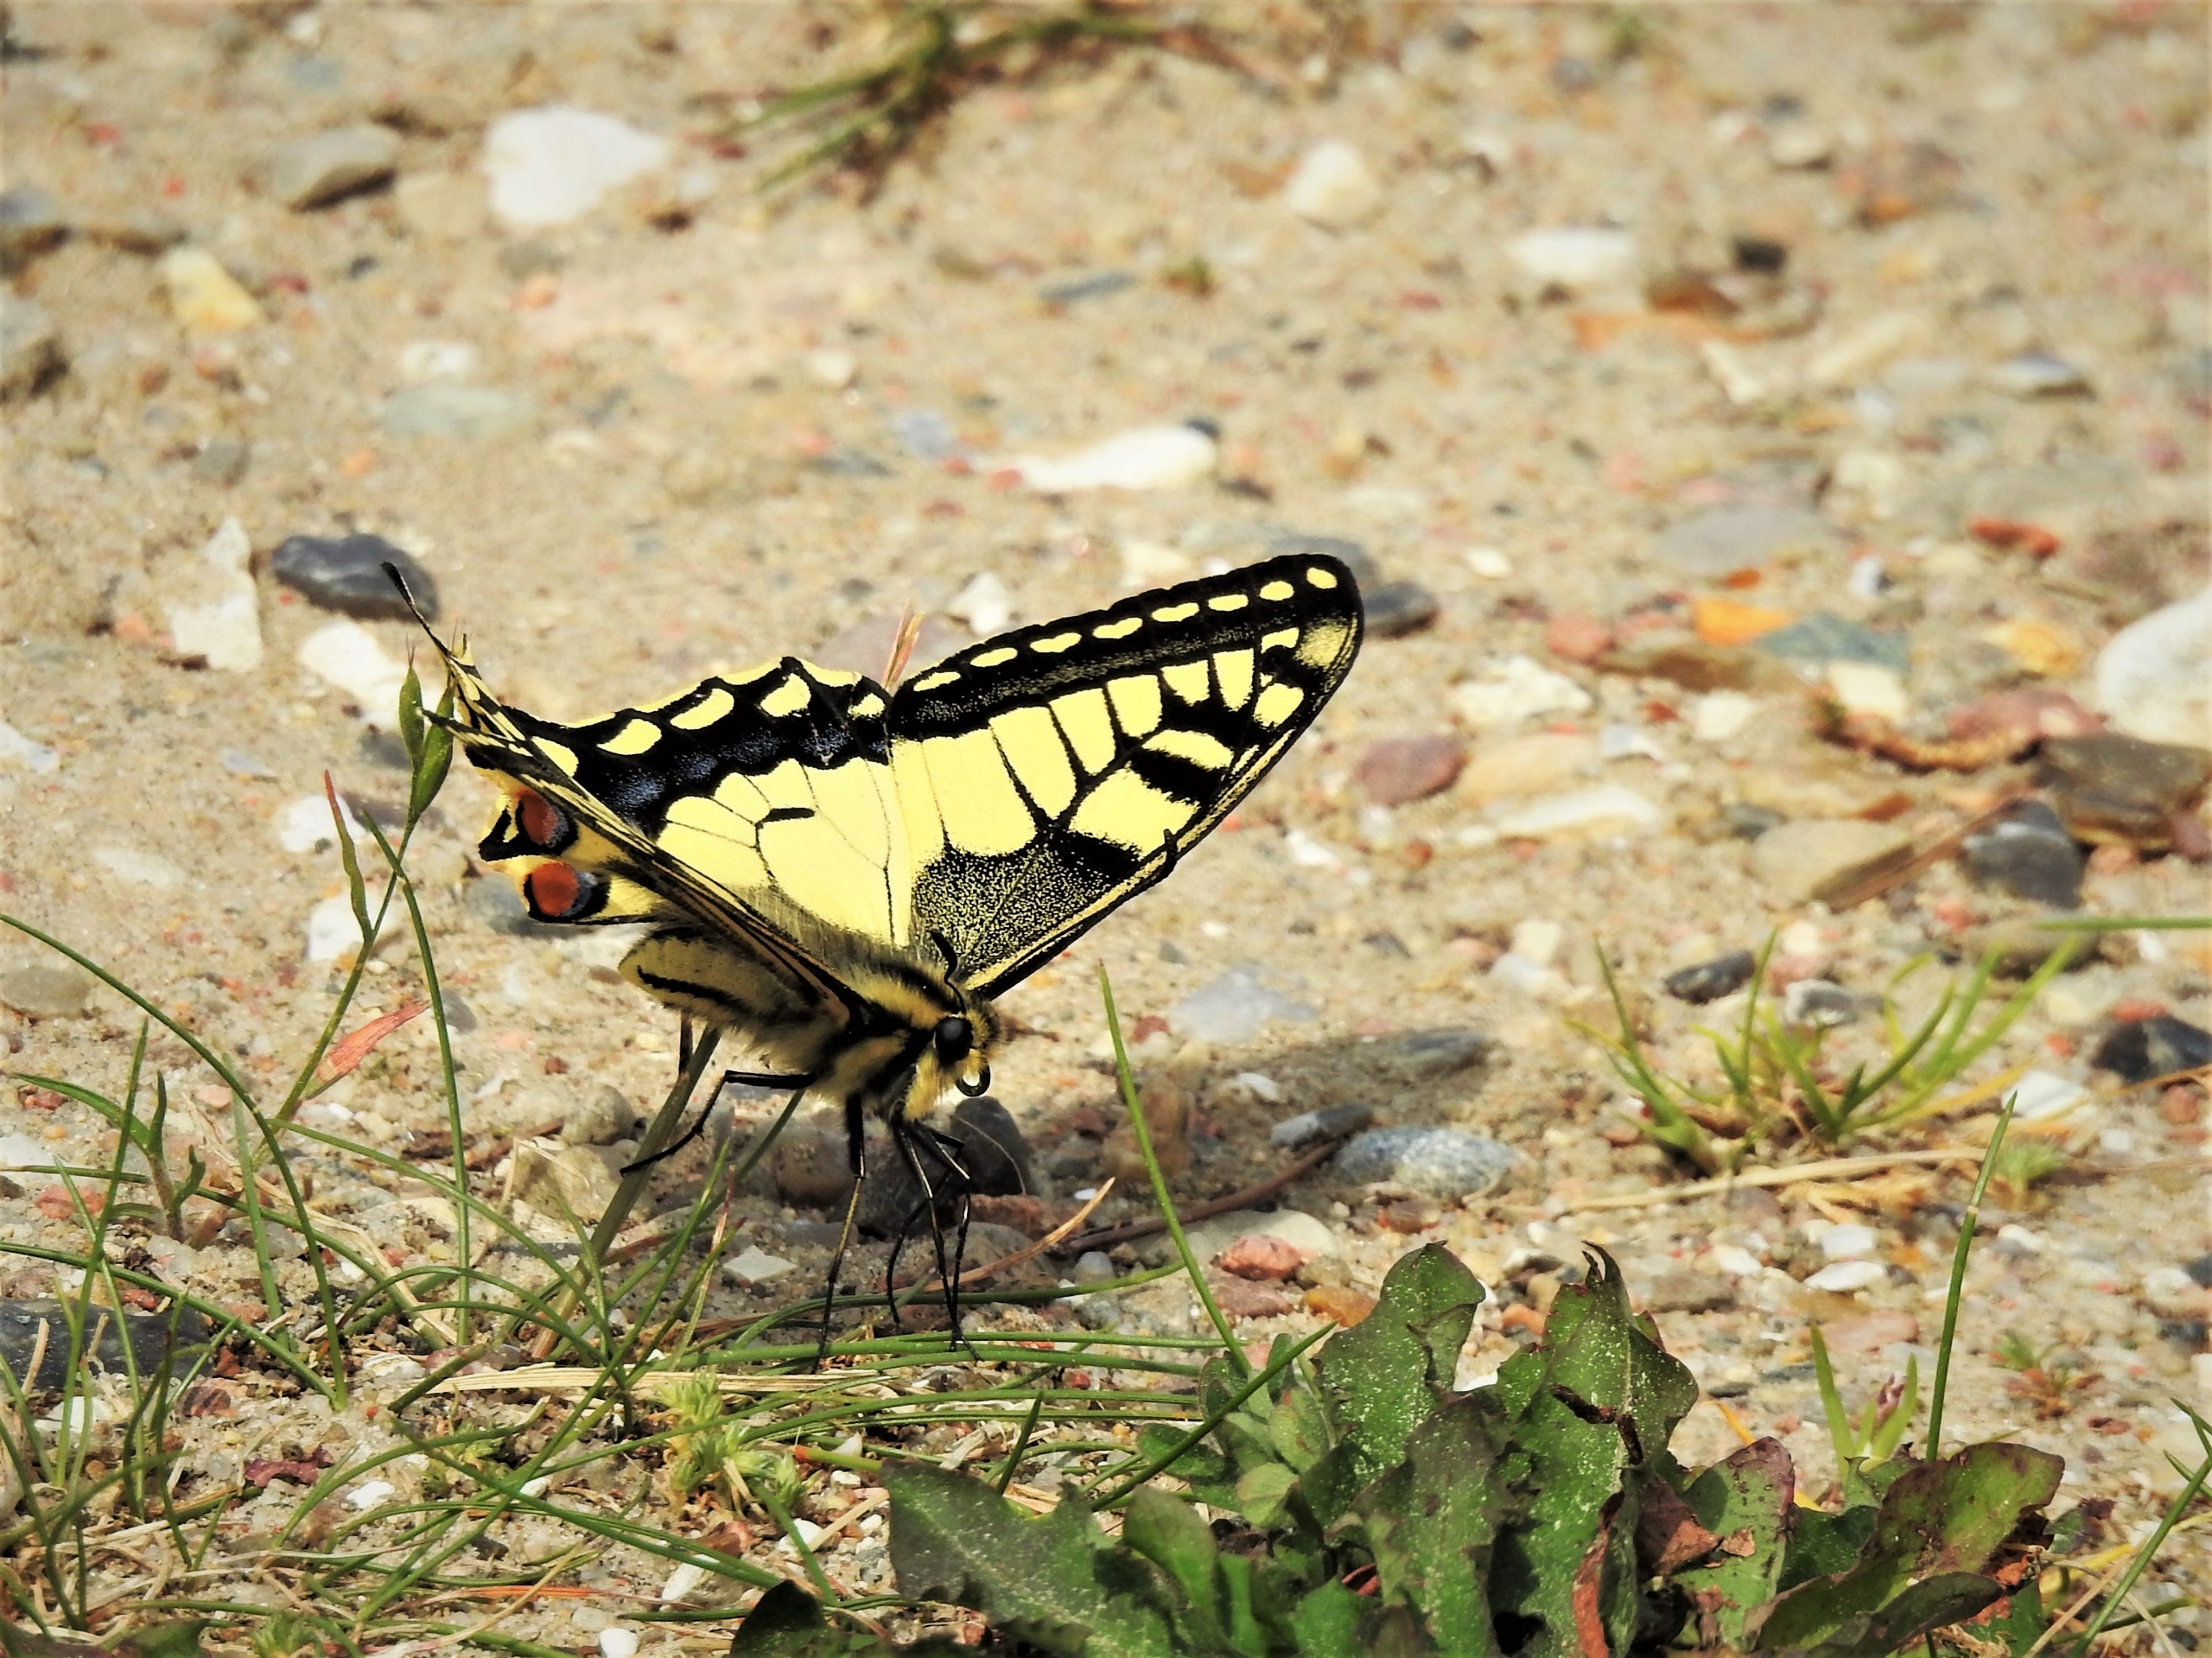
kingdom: Animalia
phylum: Arthropoda
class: Insecta
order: Lepidoptera
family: Papilionidae
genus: Papilio
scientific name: Papilio machaon
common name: Svalehale
